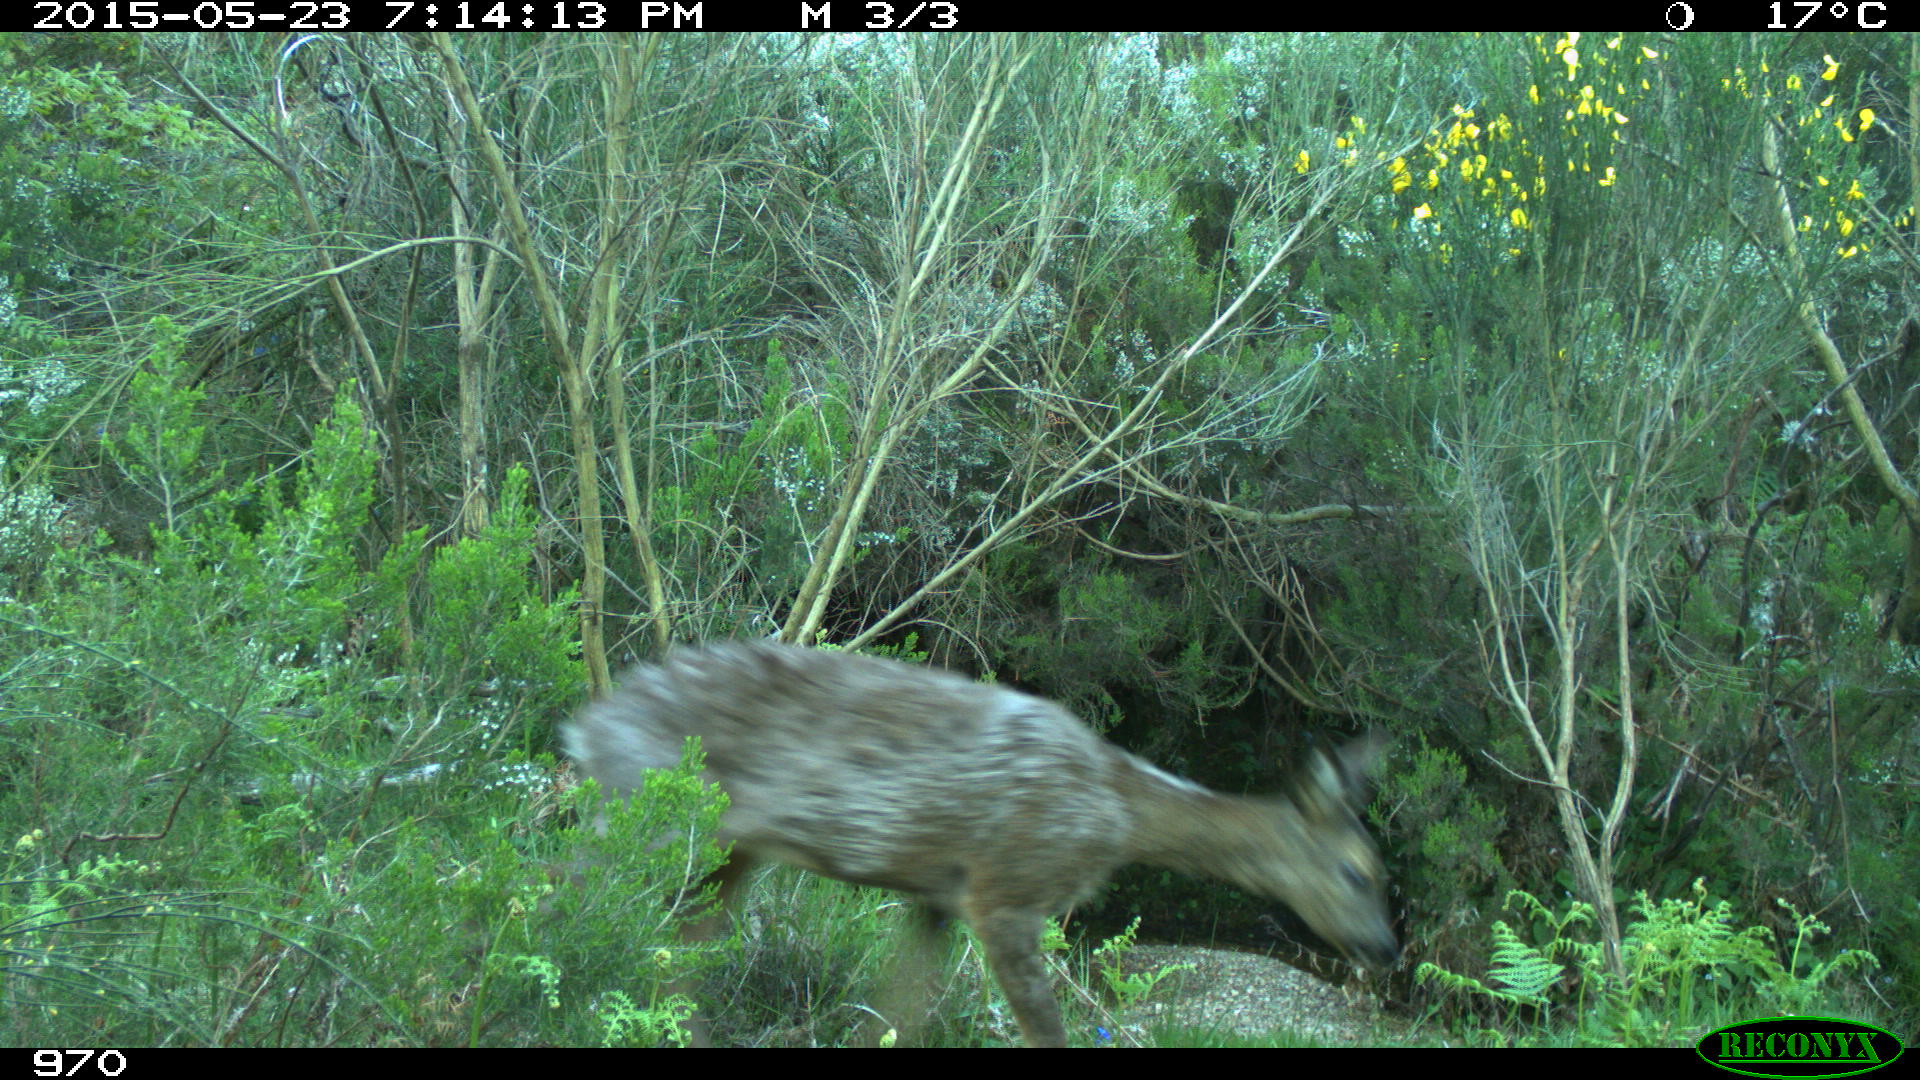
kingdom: Animalia
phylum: Chordata
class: Mammalia
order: Artiodactyla
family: Cervidae
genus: Capreolus
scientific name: Capreolus capreolus
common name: Western roe deer
